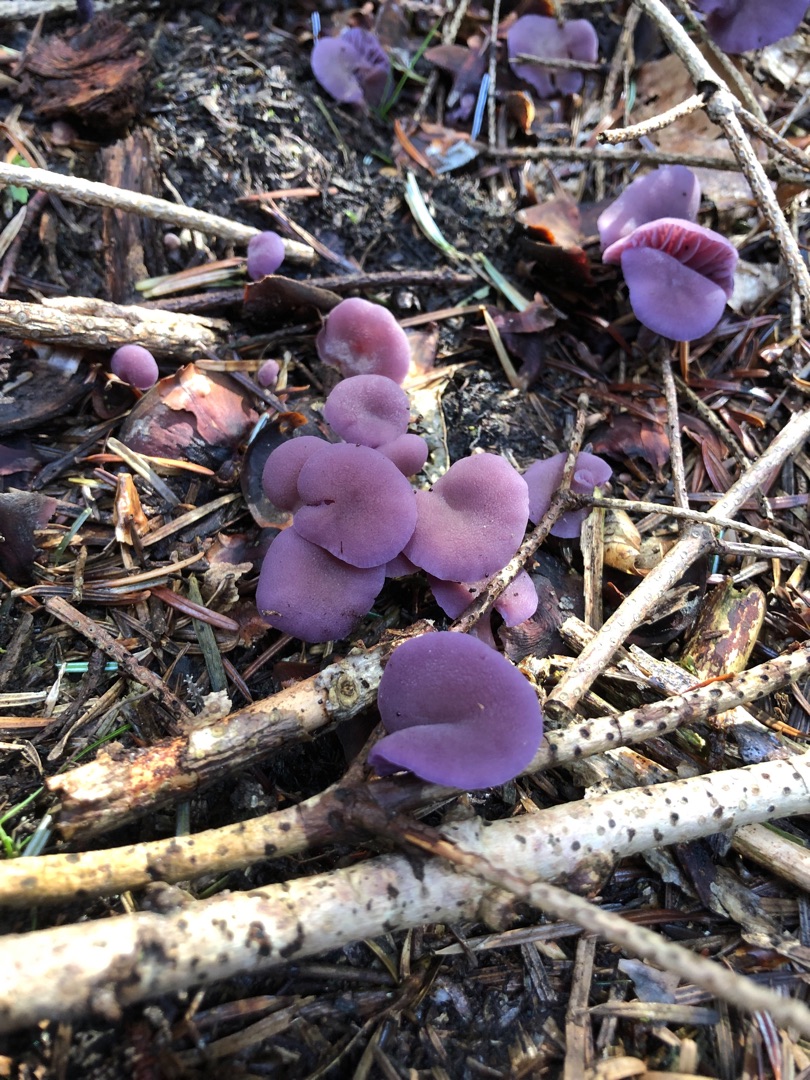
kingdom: Fungi
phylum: Basidiomycota
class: Agaricomycetes
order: Agaricales
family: Hydnangiaceae
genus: Laccaria
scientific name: Laccaria amethystina
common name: Violet ametysthat
